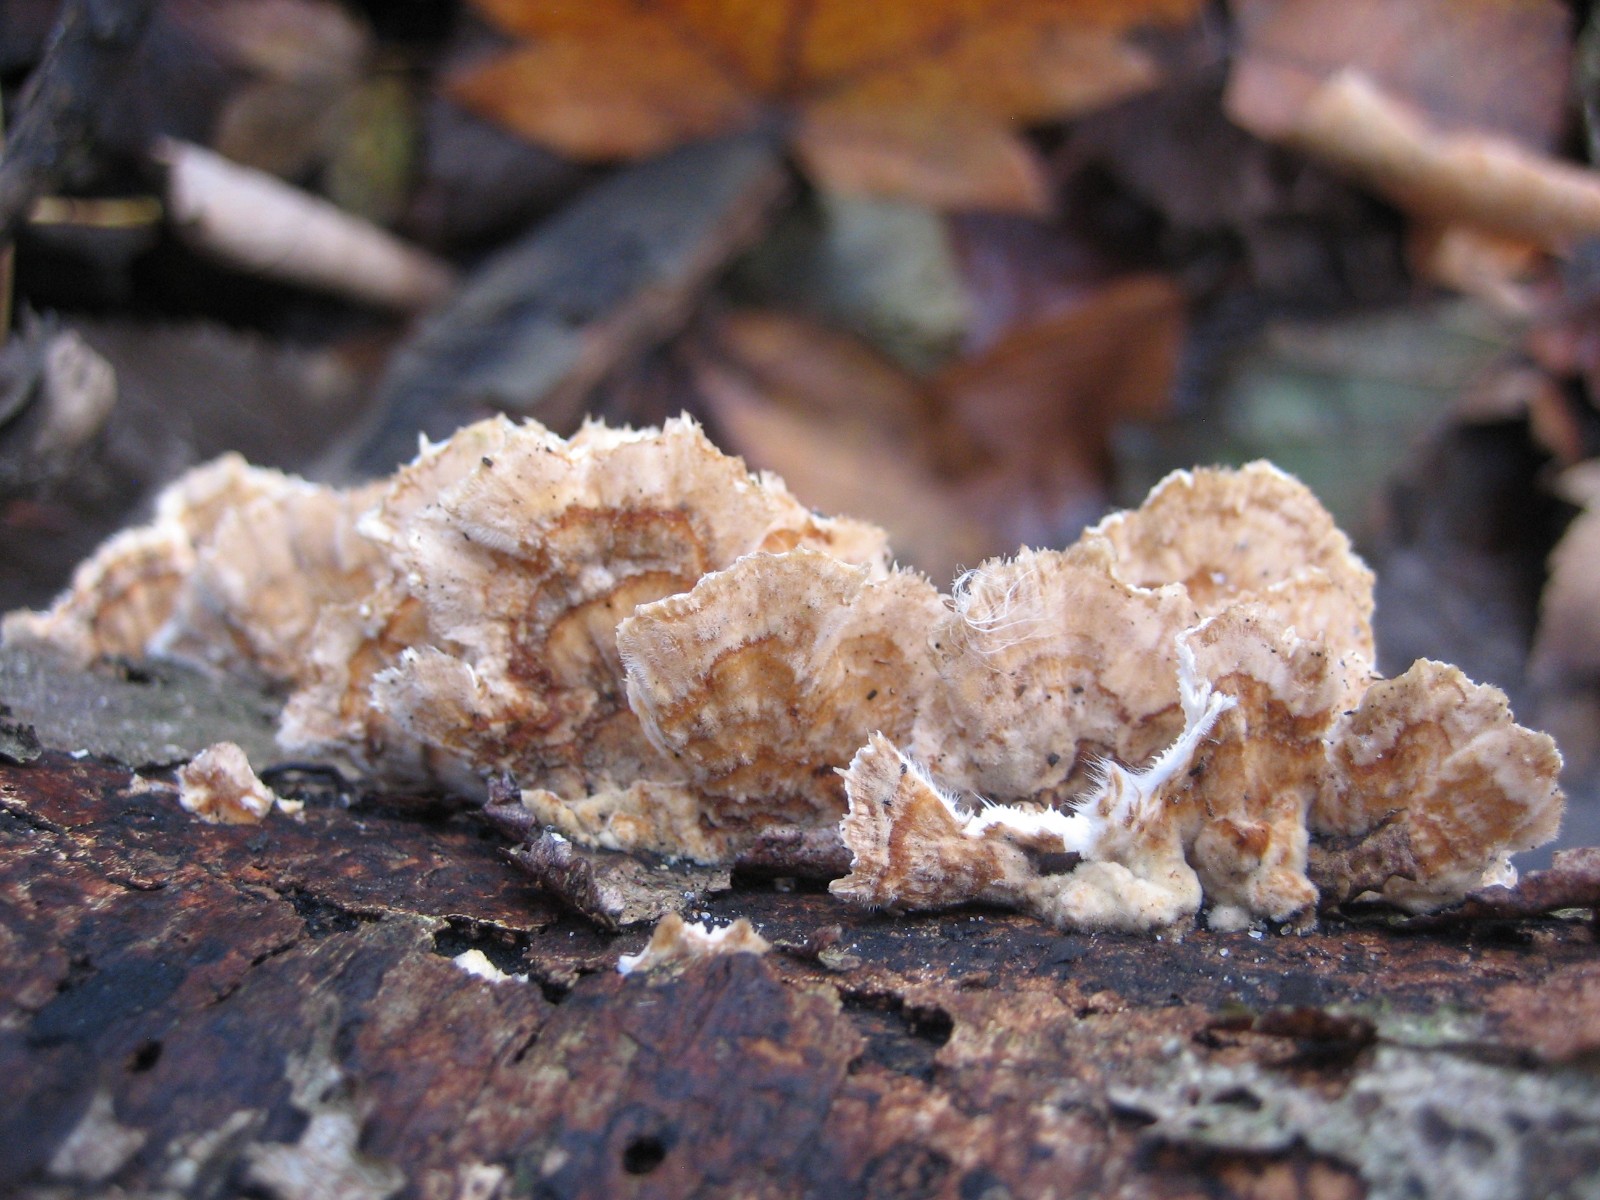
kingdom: Fungi
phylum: Basidiomycota
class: Agaricomycetes
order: Polyporales
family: Polyporaceae
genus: Trametes
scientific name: Trametes versicolor
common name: broget læderporesvamp
